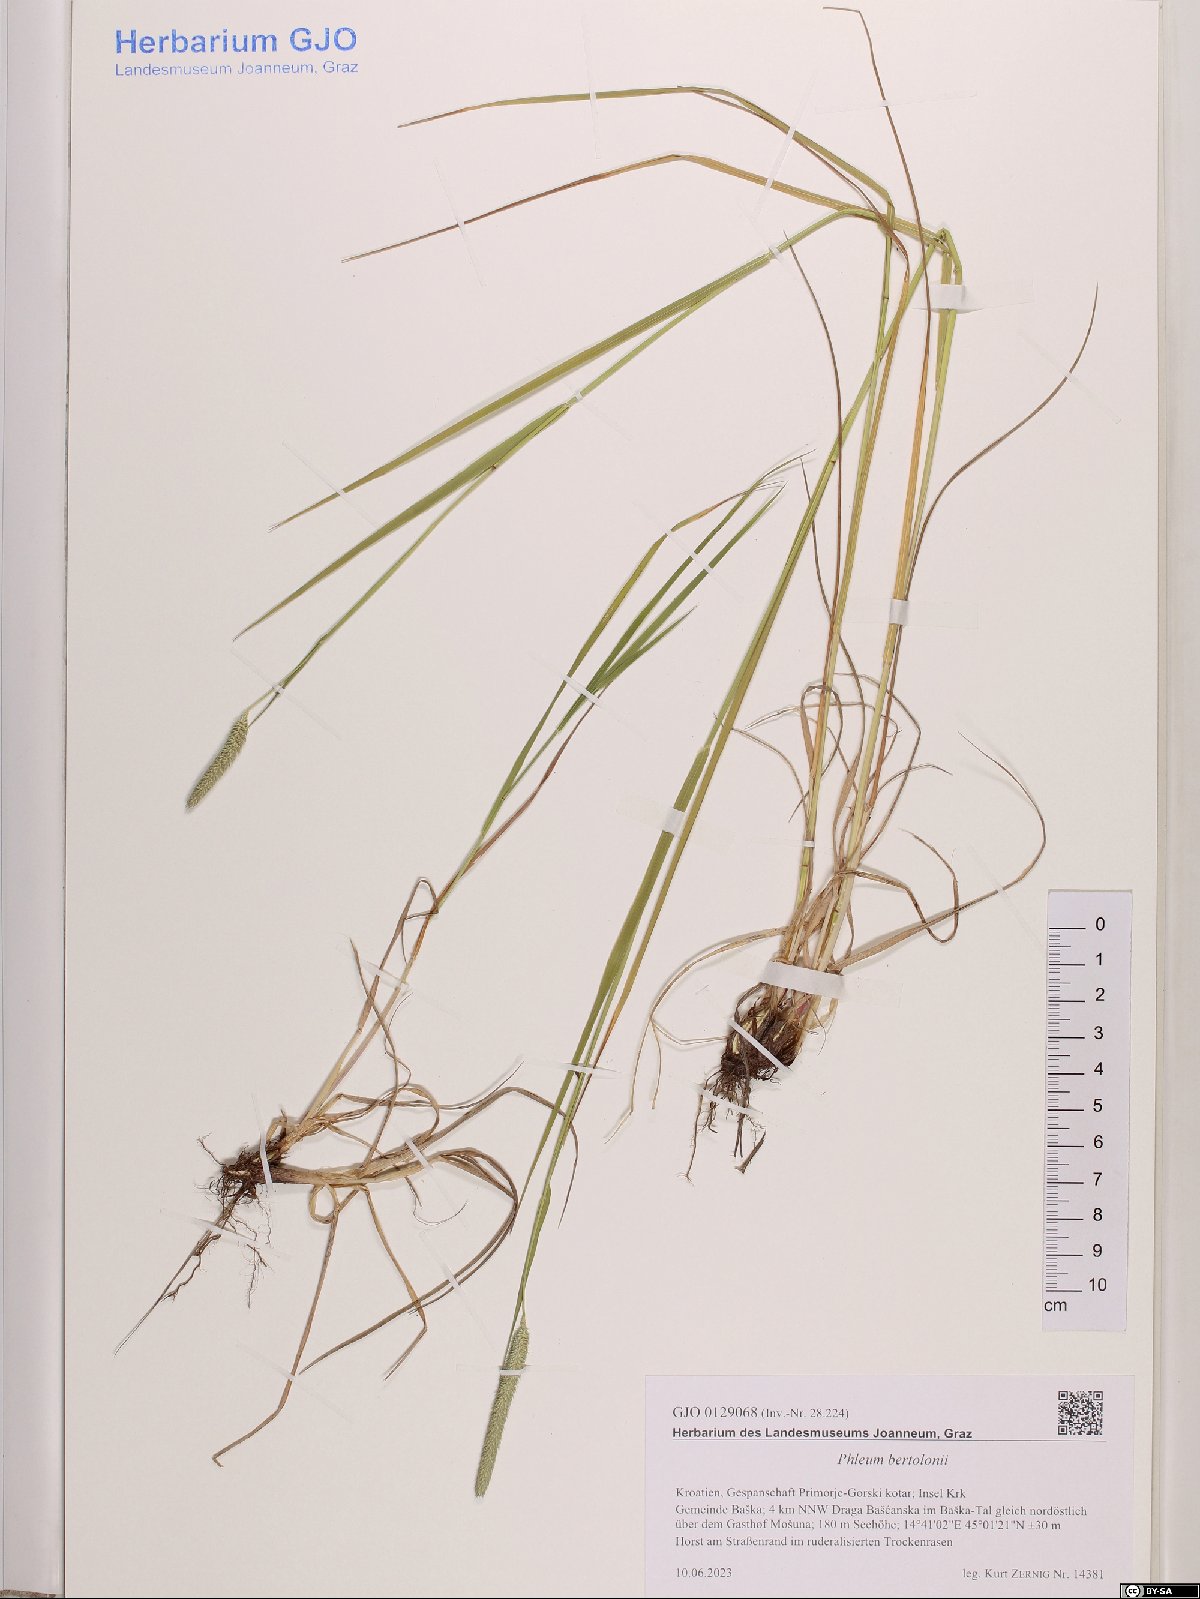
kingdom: Plantae
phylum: Tracheophyta
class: Liliopsida
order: Poales
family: Poaceae
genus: Phleum
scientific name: Phleum bertolonii
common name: Smaller cat's-tail
